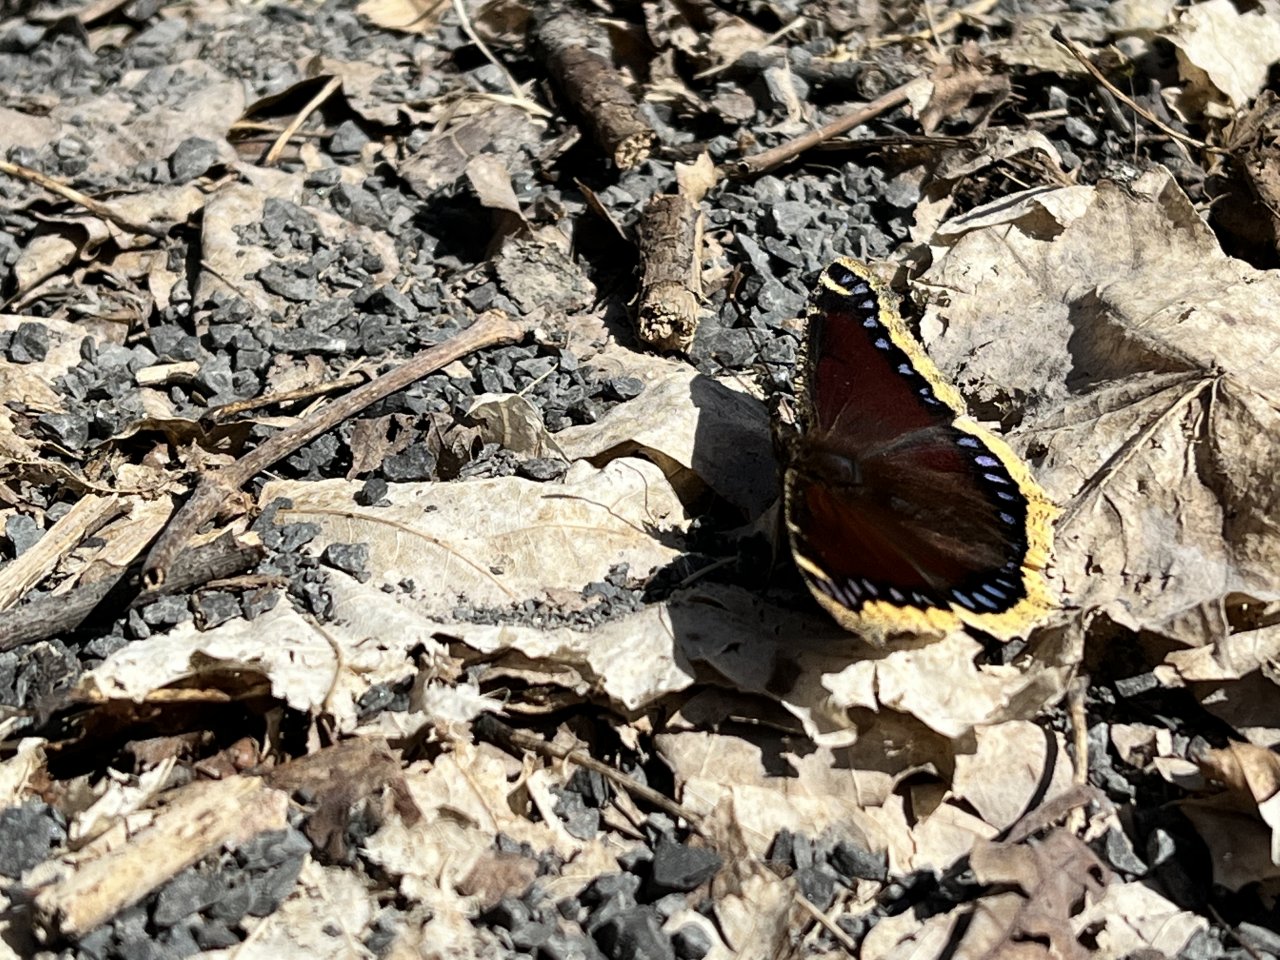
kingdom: Animalia
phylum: Arthropoda
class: Insecta
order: Lepidoptera
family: Nymphalidae
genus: Nymphalis
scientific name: Nymphalis antiopa
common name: Mourning Cloak
